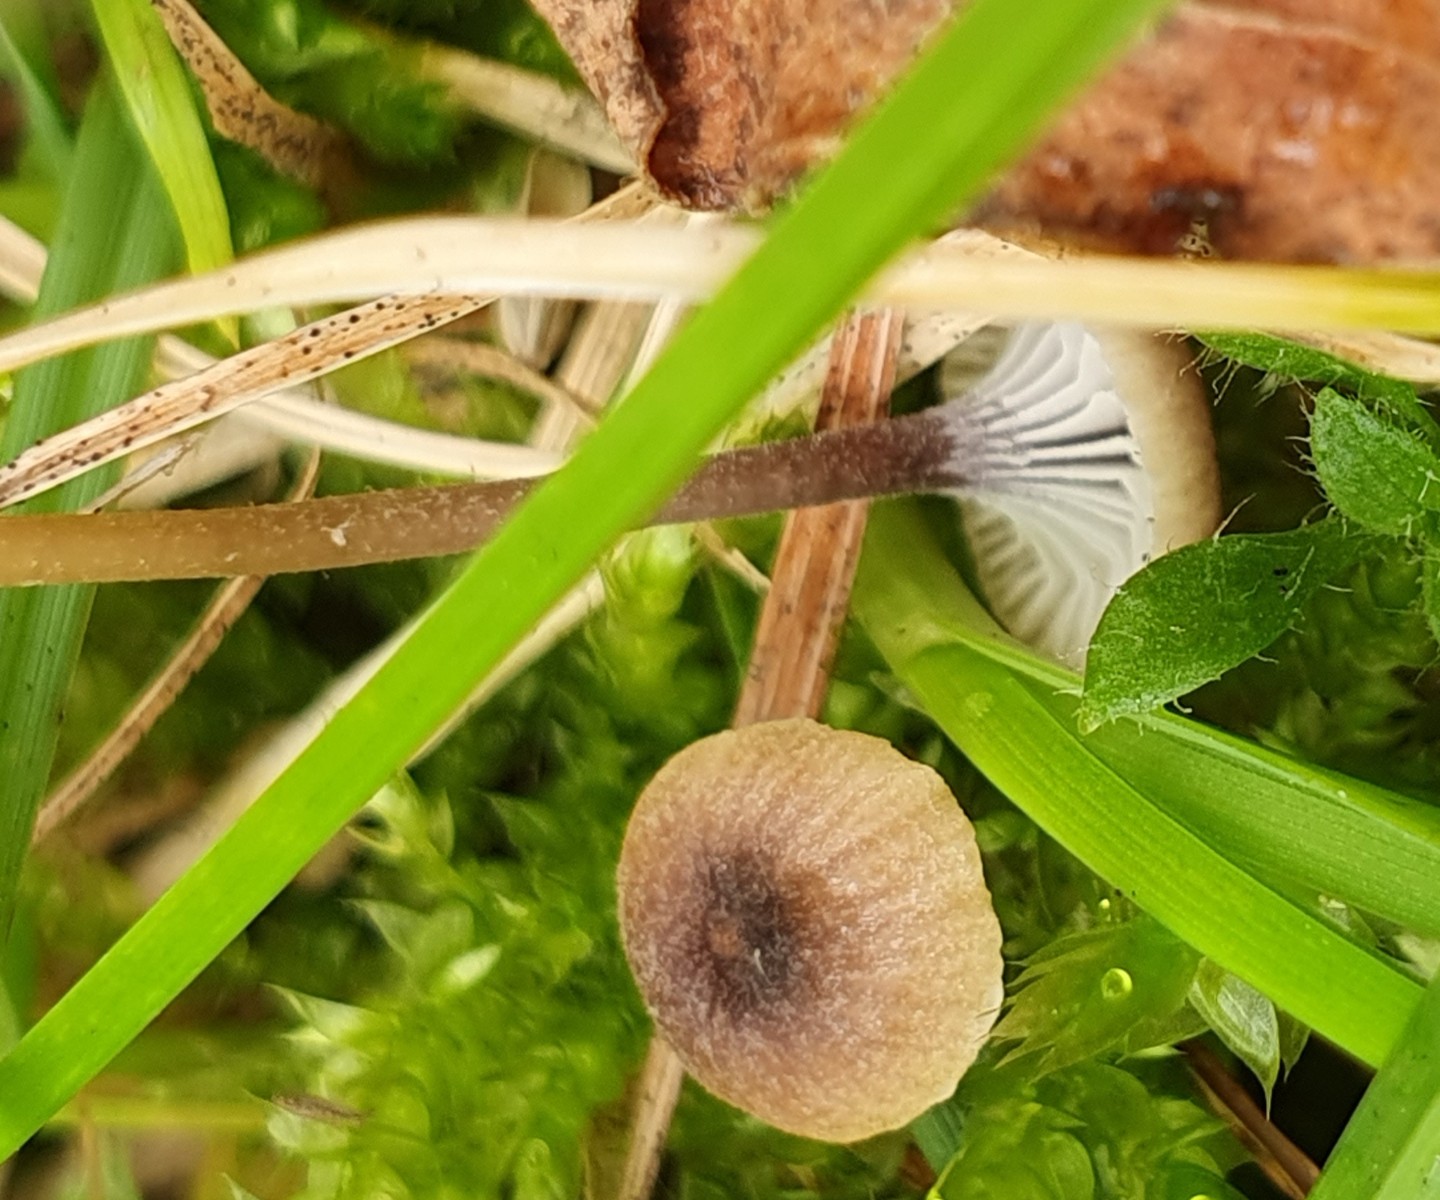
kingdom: Fungi
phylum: Basidiomycota
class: Agaricomycetes
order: Hymenochaetales
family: Rickenellaceae
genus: Rickenella
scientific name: Rickenella swartzii
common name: finstokket mosnavlehat
